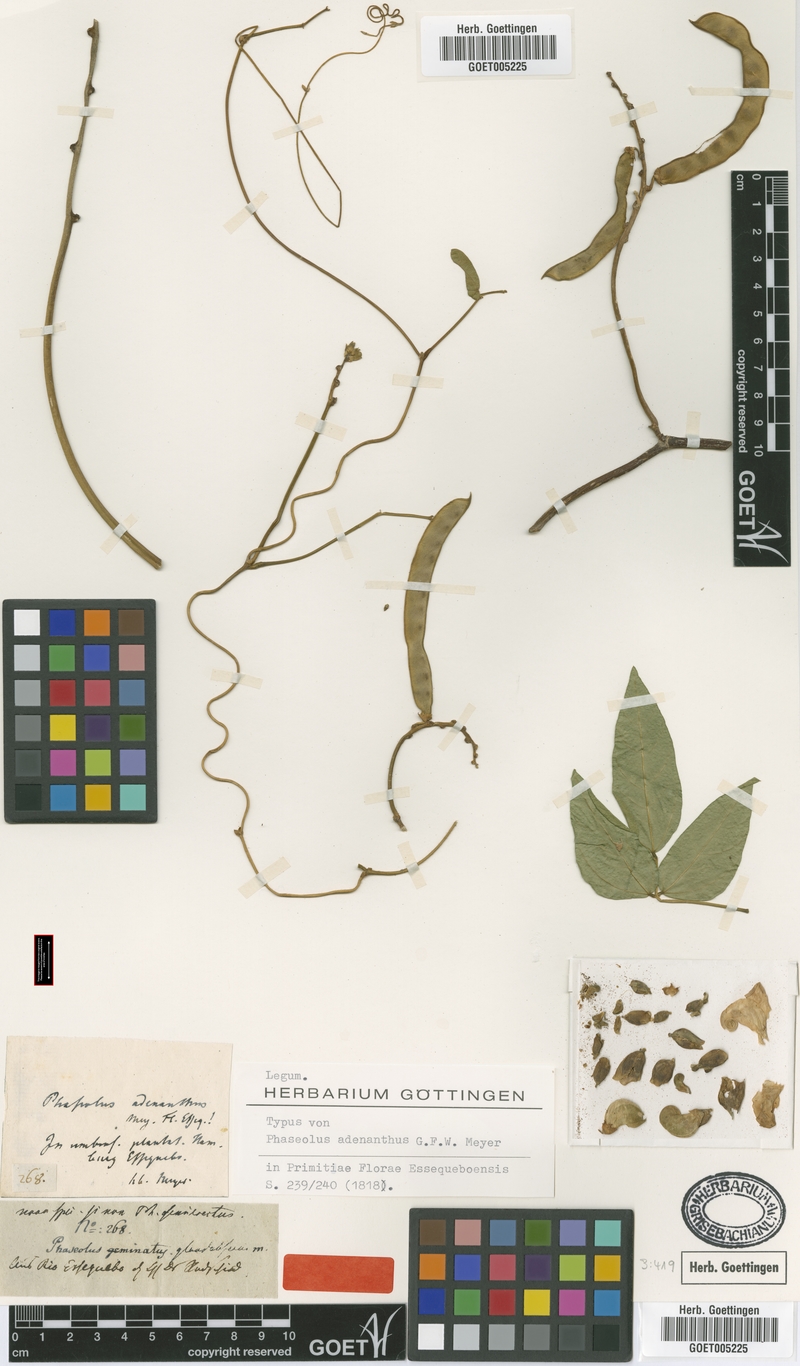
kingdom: Plantae
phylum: Tracheophyta
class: Magnoliopsida
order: Fabales
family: Fabaceae
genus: Leptospron
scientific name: Leptospron adenanthum
